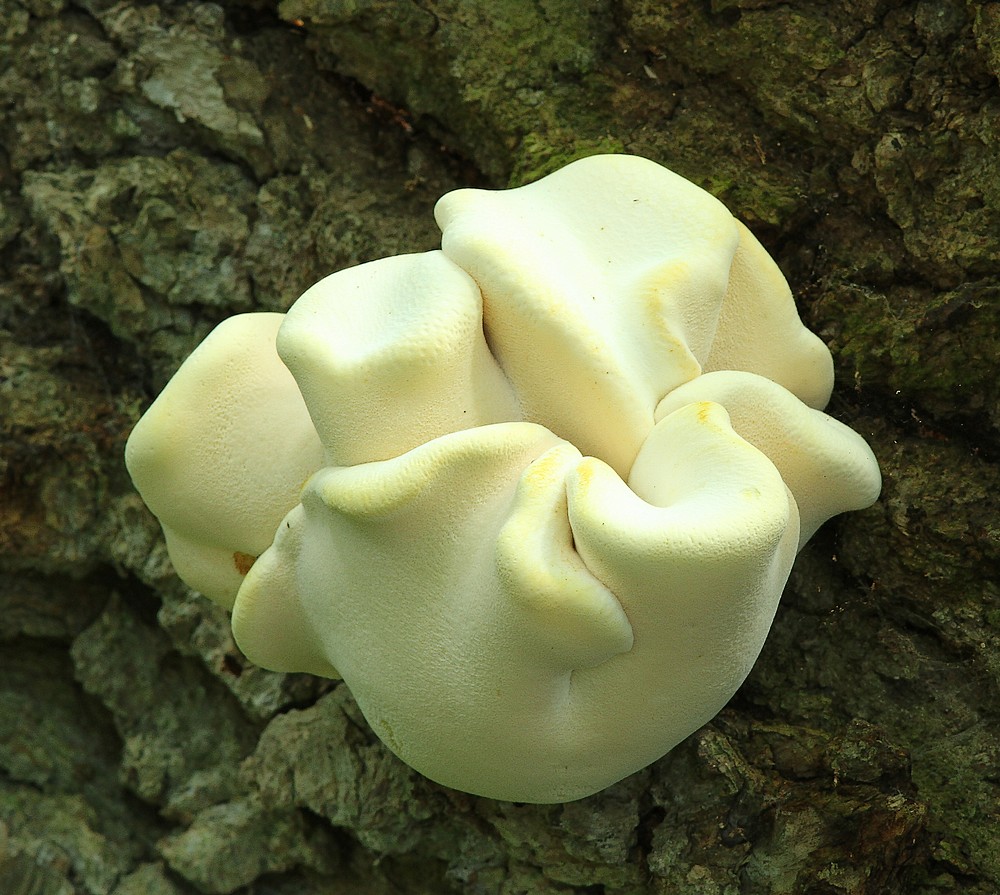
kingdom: Fungi
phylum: Basidiomycota
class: Agaricomycetes
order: Polyporales
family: Fomitopsidaceae
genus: Buglossoporus
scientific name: Buglossoporus quercinus
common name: egetunge
